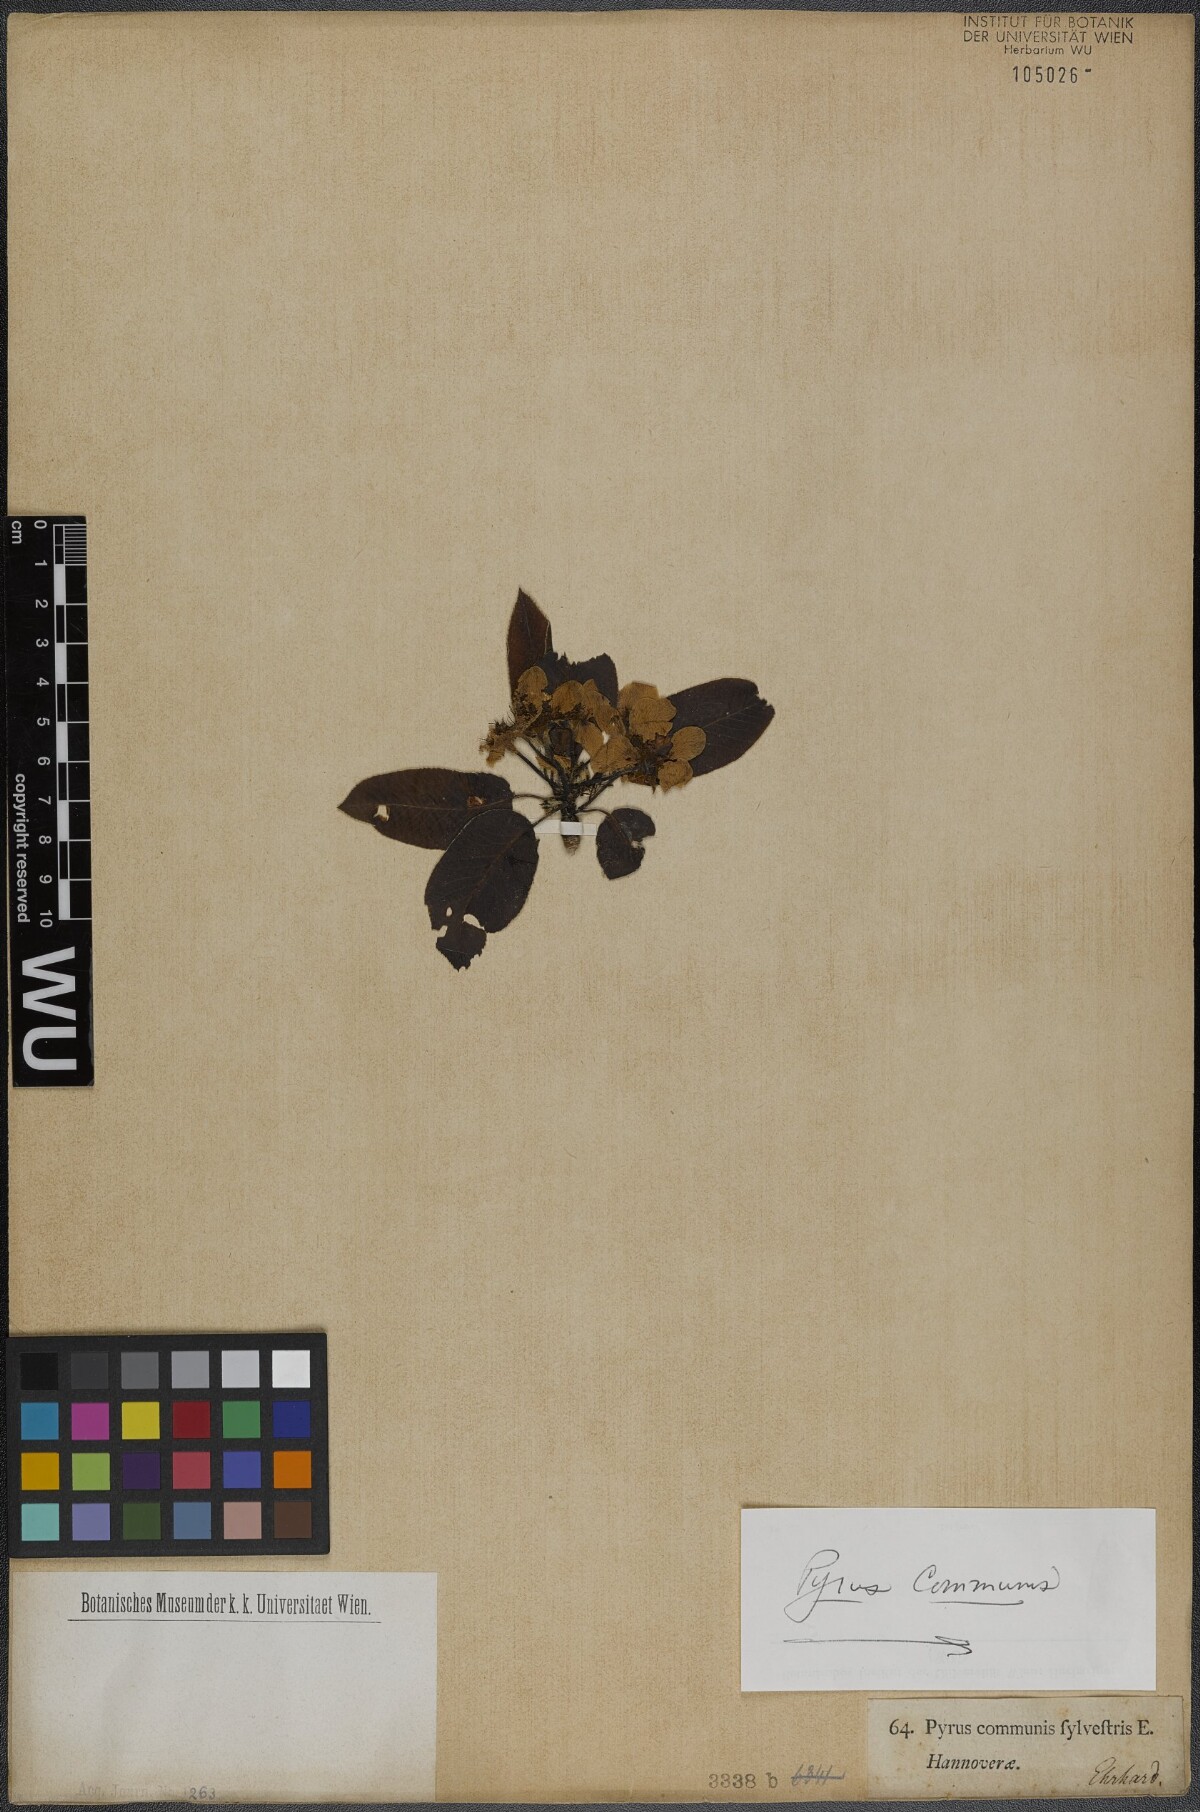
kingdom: Plantae
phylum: Tracheophyta
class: Magnoliopsida
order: Rosales
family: Rosaceae
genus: Pyrus
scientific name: Pyrus communis
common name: Pear
